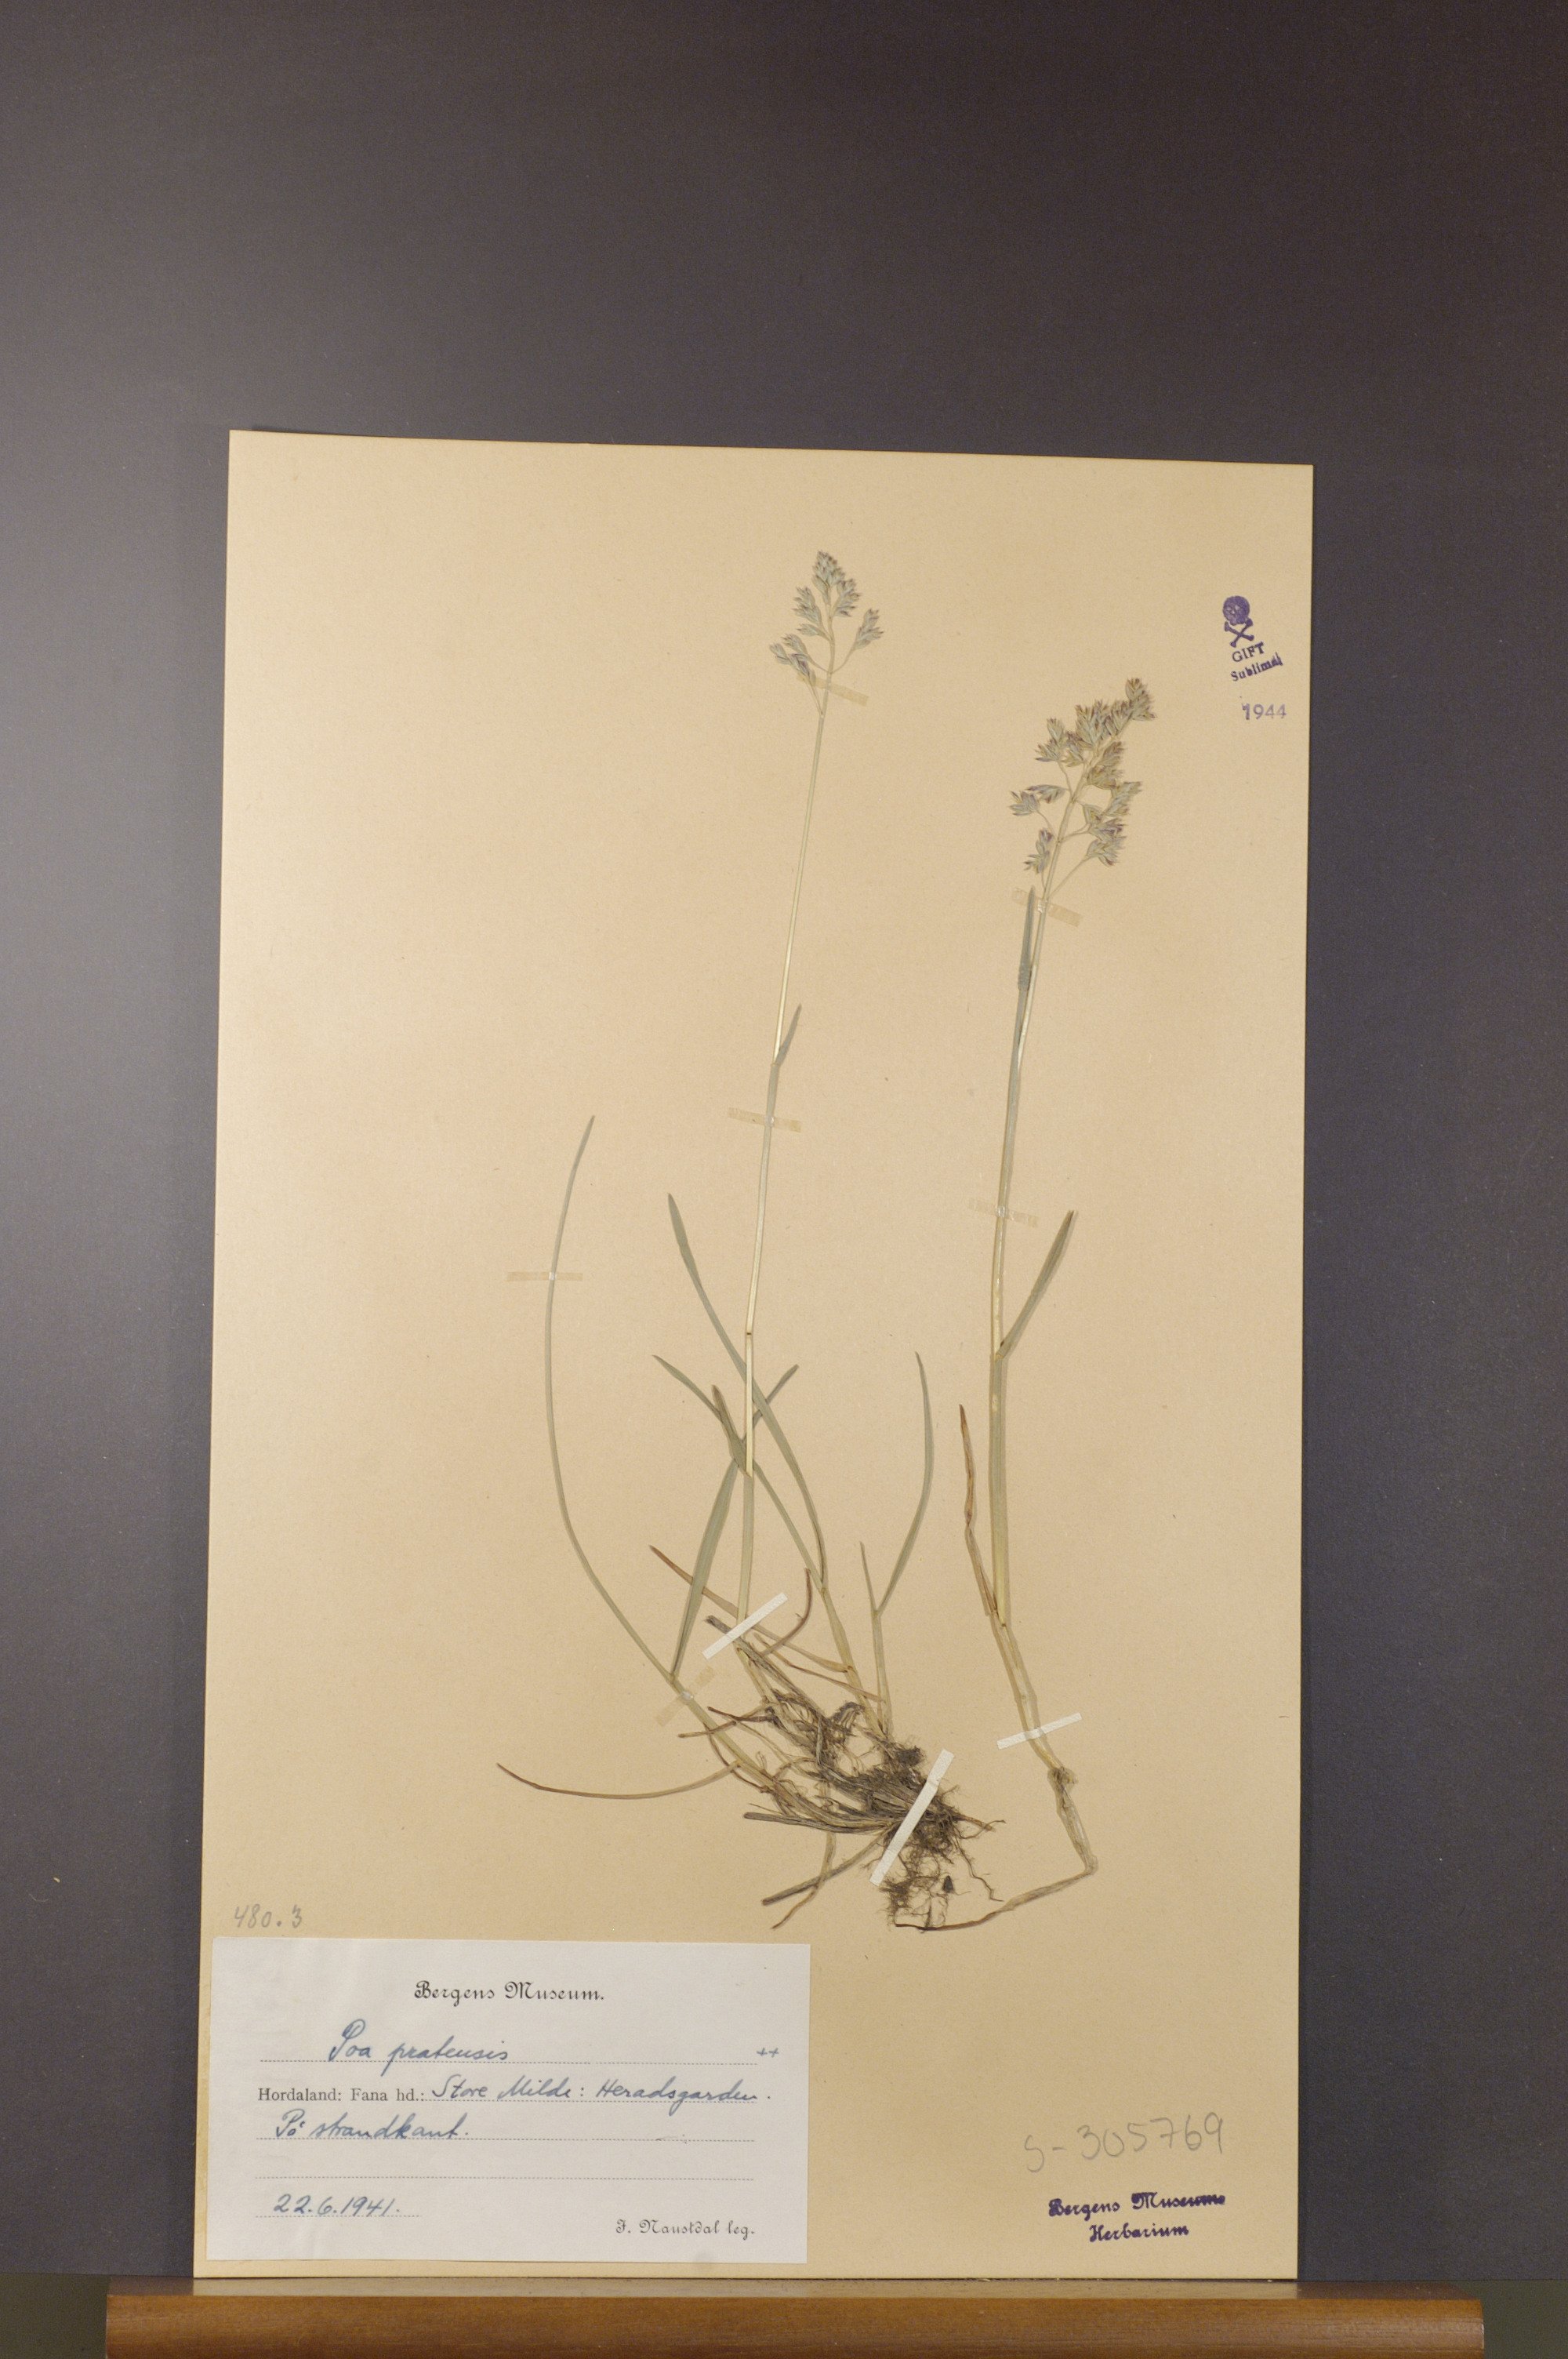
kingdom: Plantae
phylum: Tracheophyta
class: Liliopsida
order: Poales
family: Poaceae
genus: Poa
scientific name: Poa pratensis
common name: Kentucky bluegrass
